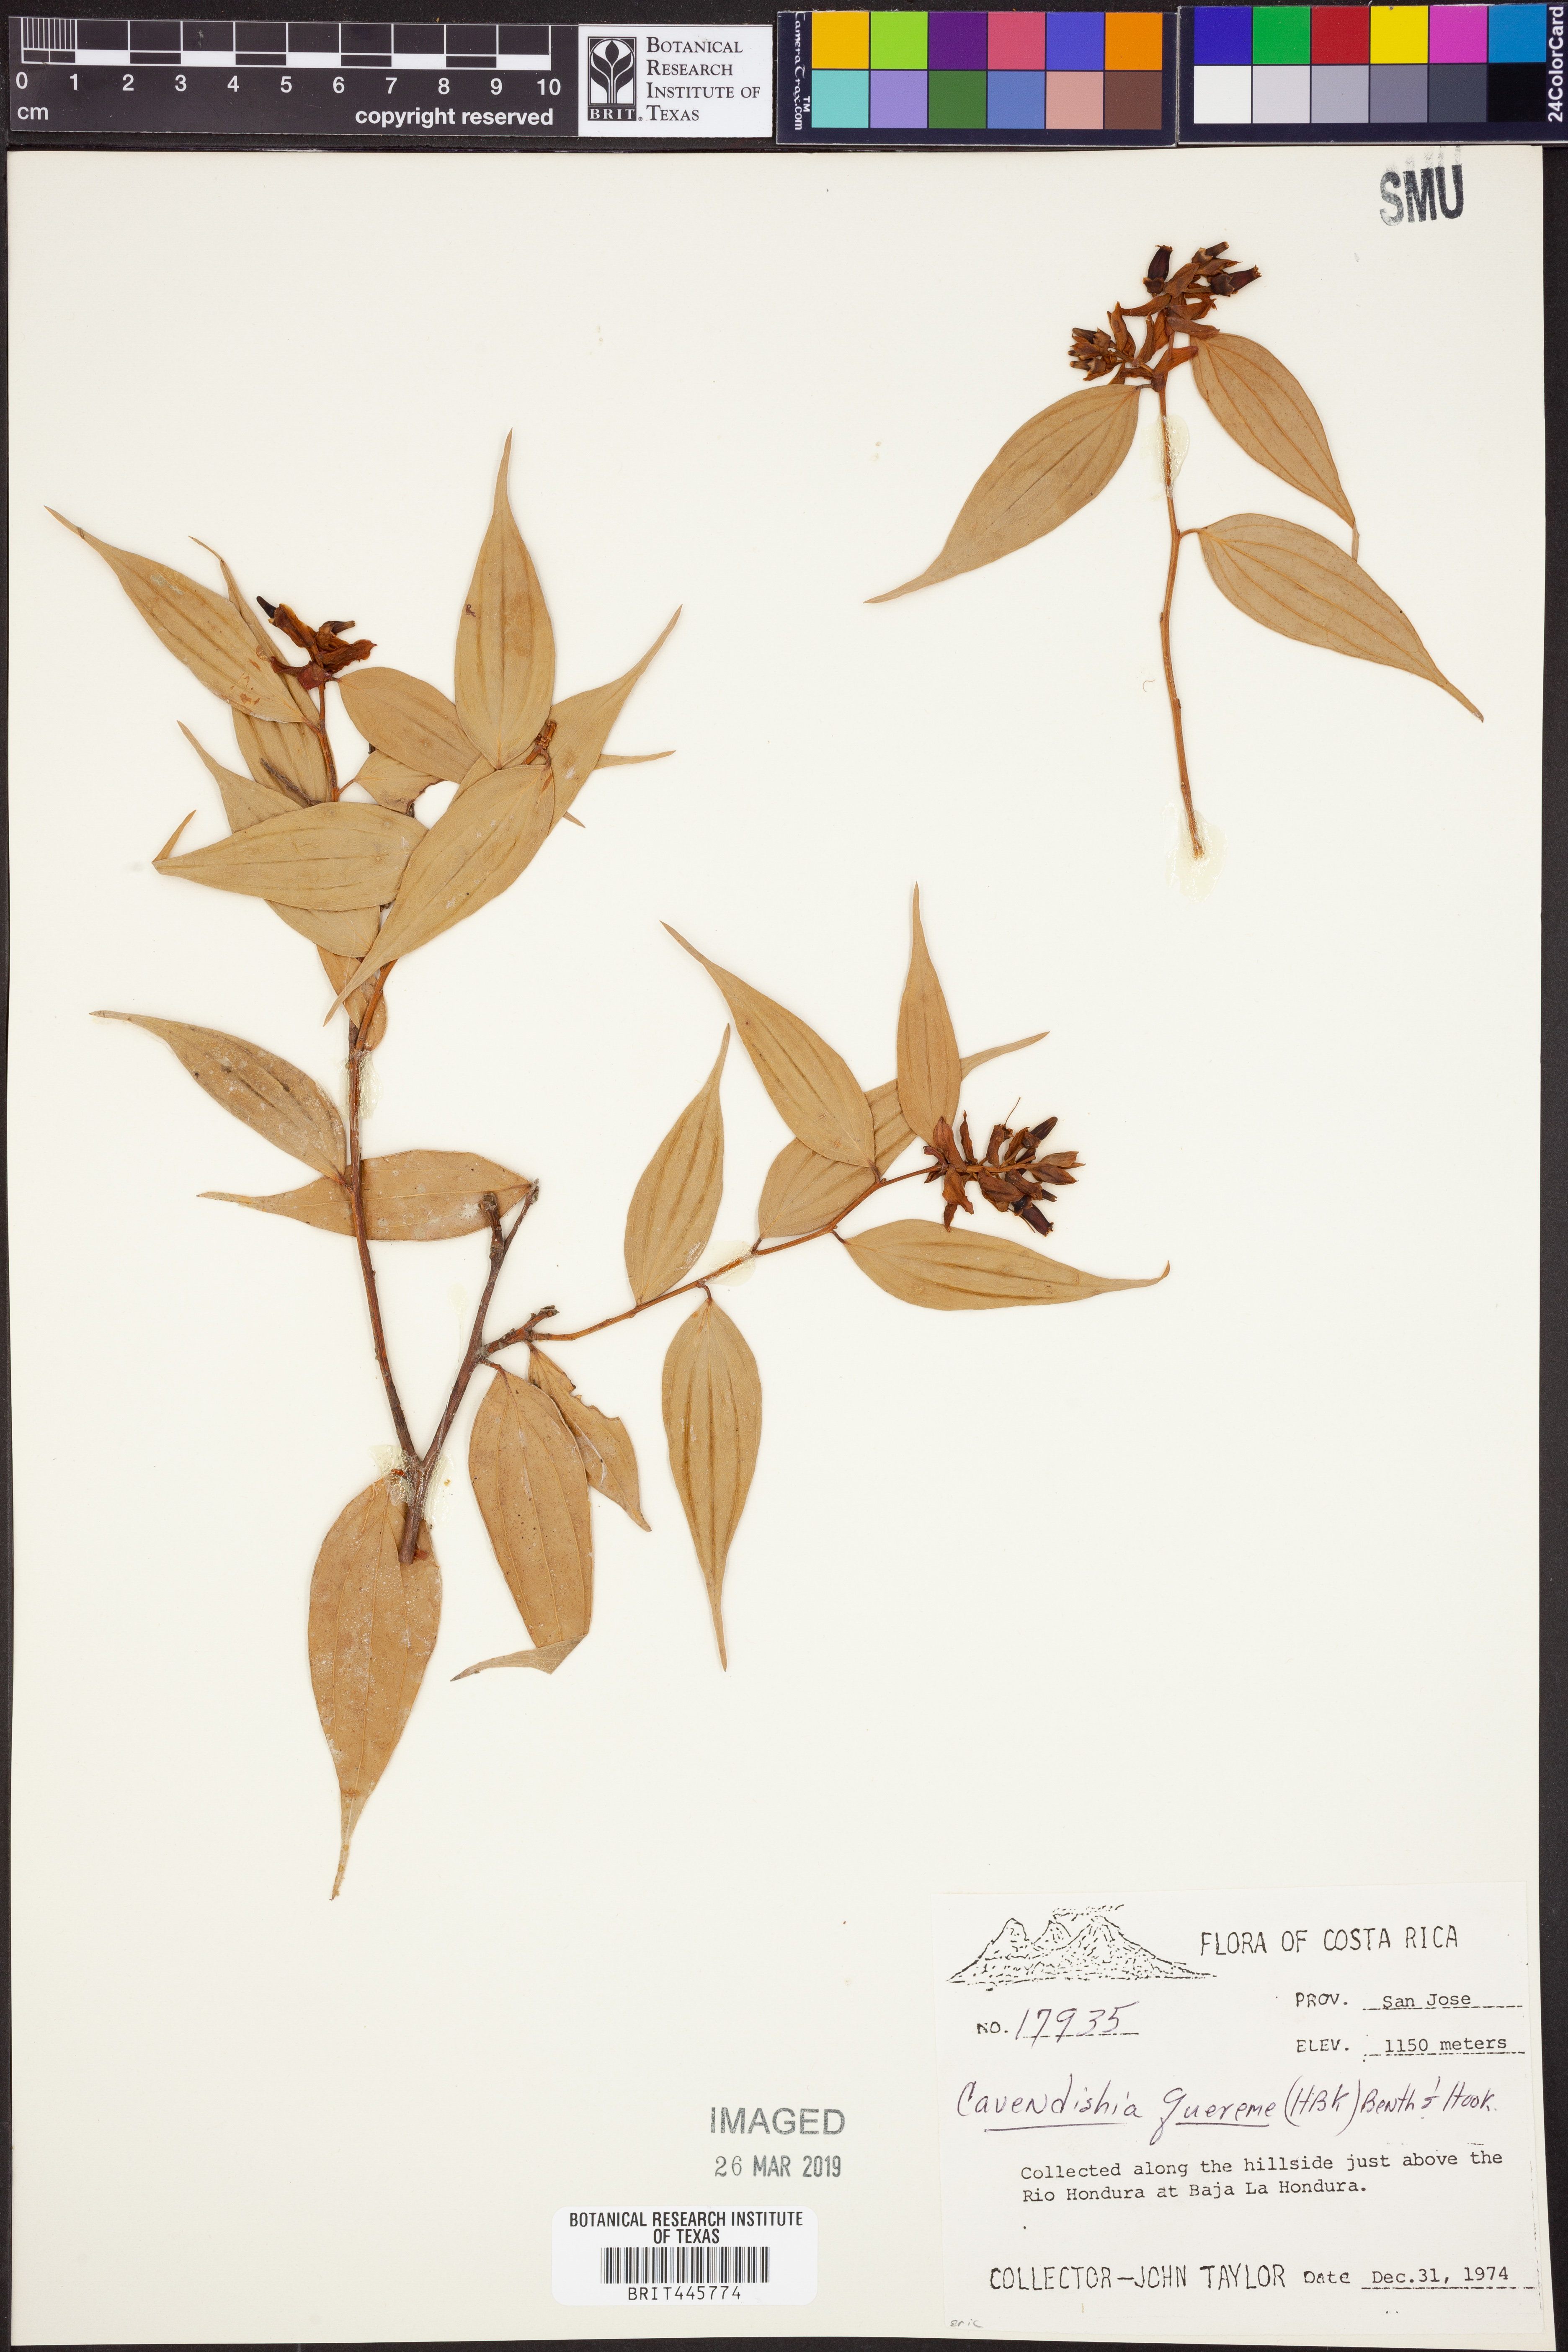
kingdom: Plantae
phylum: Tracheophyta
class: Magnoliopsida
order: Ericales
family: Ericaceae
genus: Cavendishia
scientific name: Cavendishia quereme
